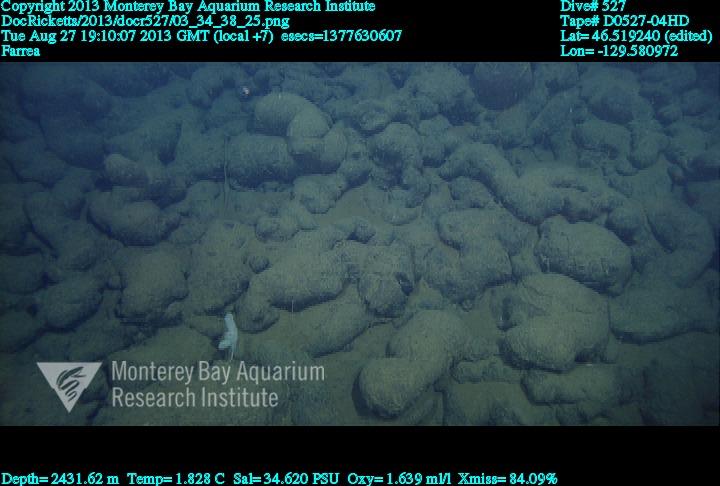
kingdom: Animalia
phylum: Porifera
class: Hexactinellida
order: Sceptrulophora
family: Farreidae
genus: Farrea
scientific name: Farrea
